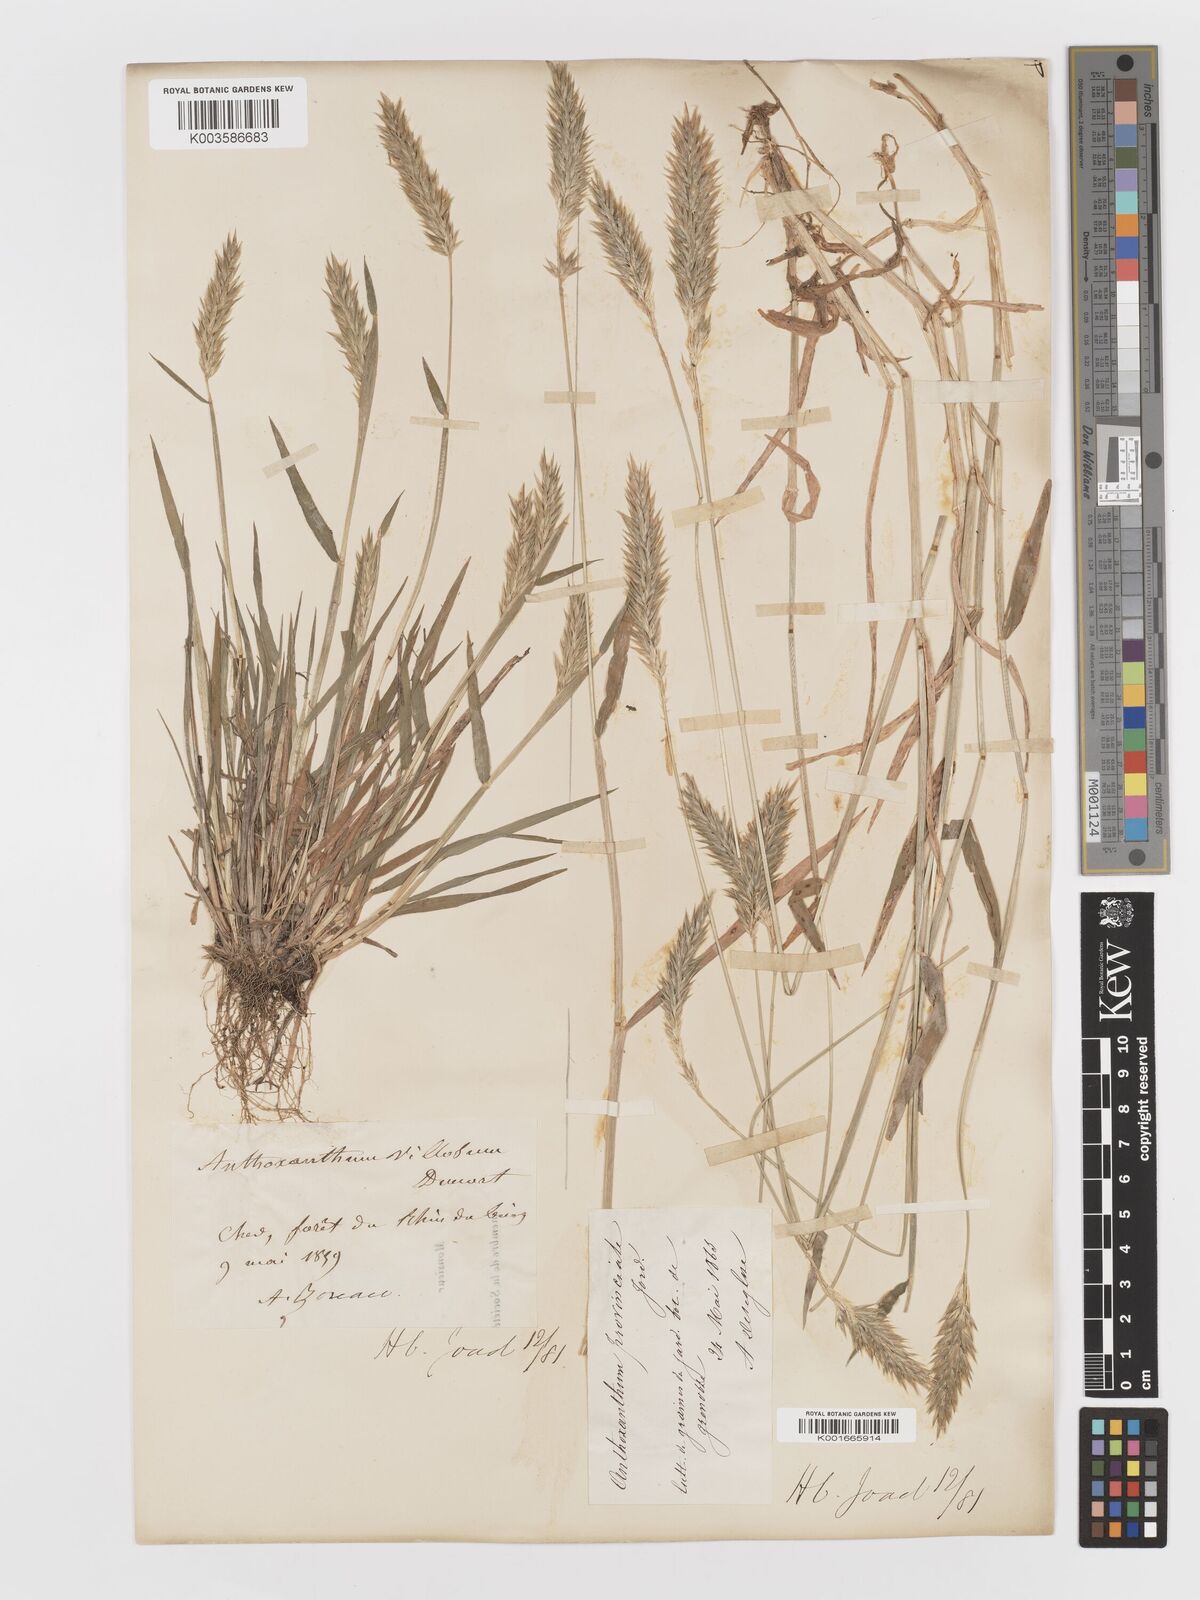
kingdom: Plantae
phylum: Tracheophyta
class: Liliopsida
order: Poales
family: Poaceae
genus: Anthoxanthum
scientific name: Anthoxanthum odoratum
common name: Sweet vernalgrass
